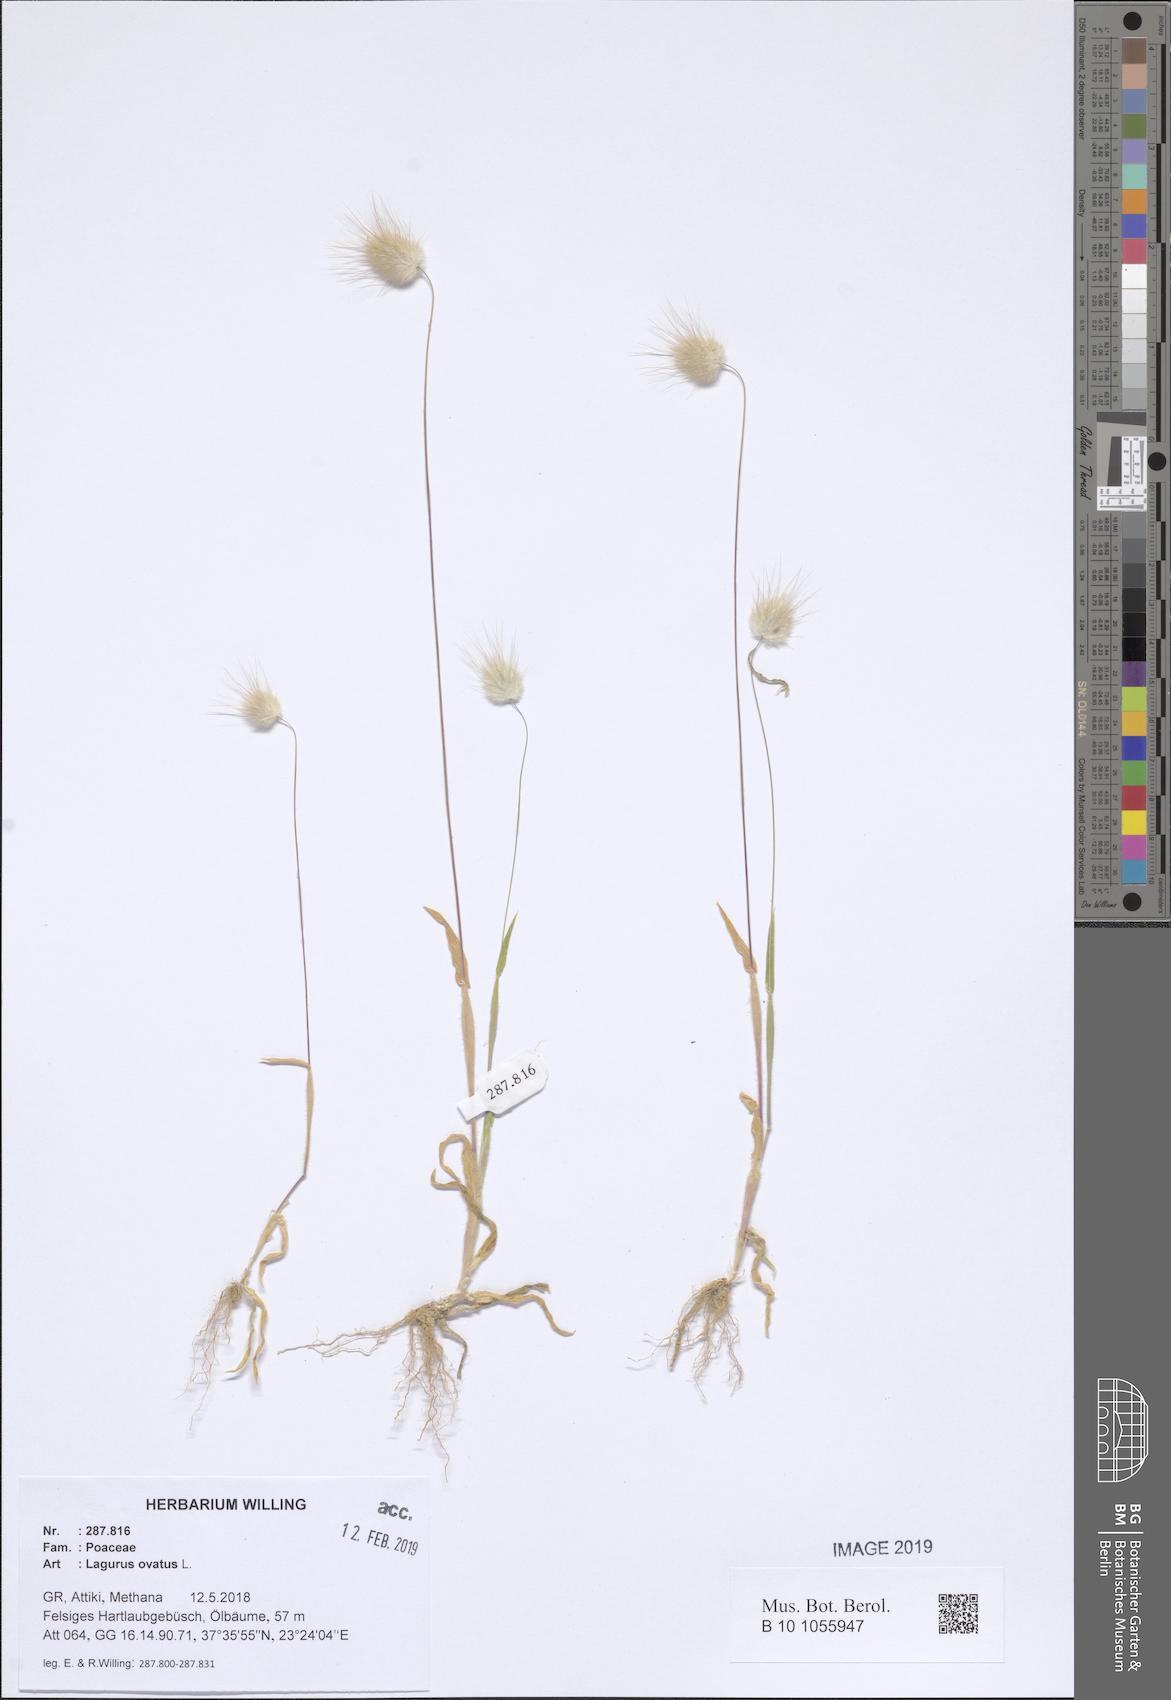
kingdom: Plantae
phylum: Tracheophyta
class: Liliopsida
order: Poales
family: Poaceae
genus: Lagurus
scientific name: Lagurus ovatus
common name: Hare's-tail
